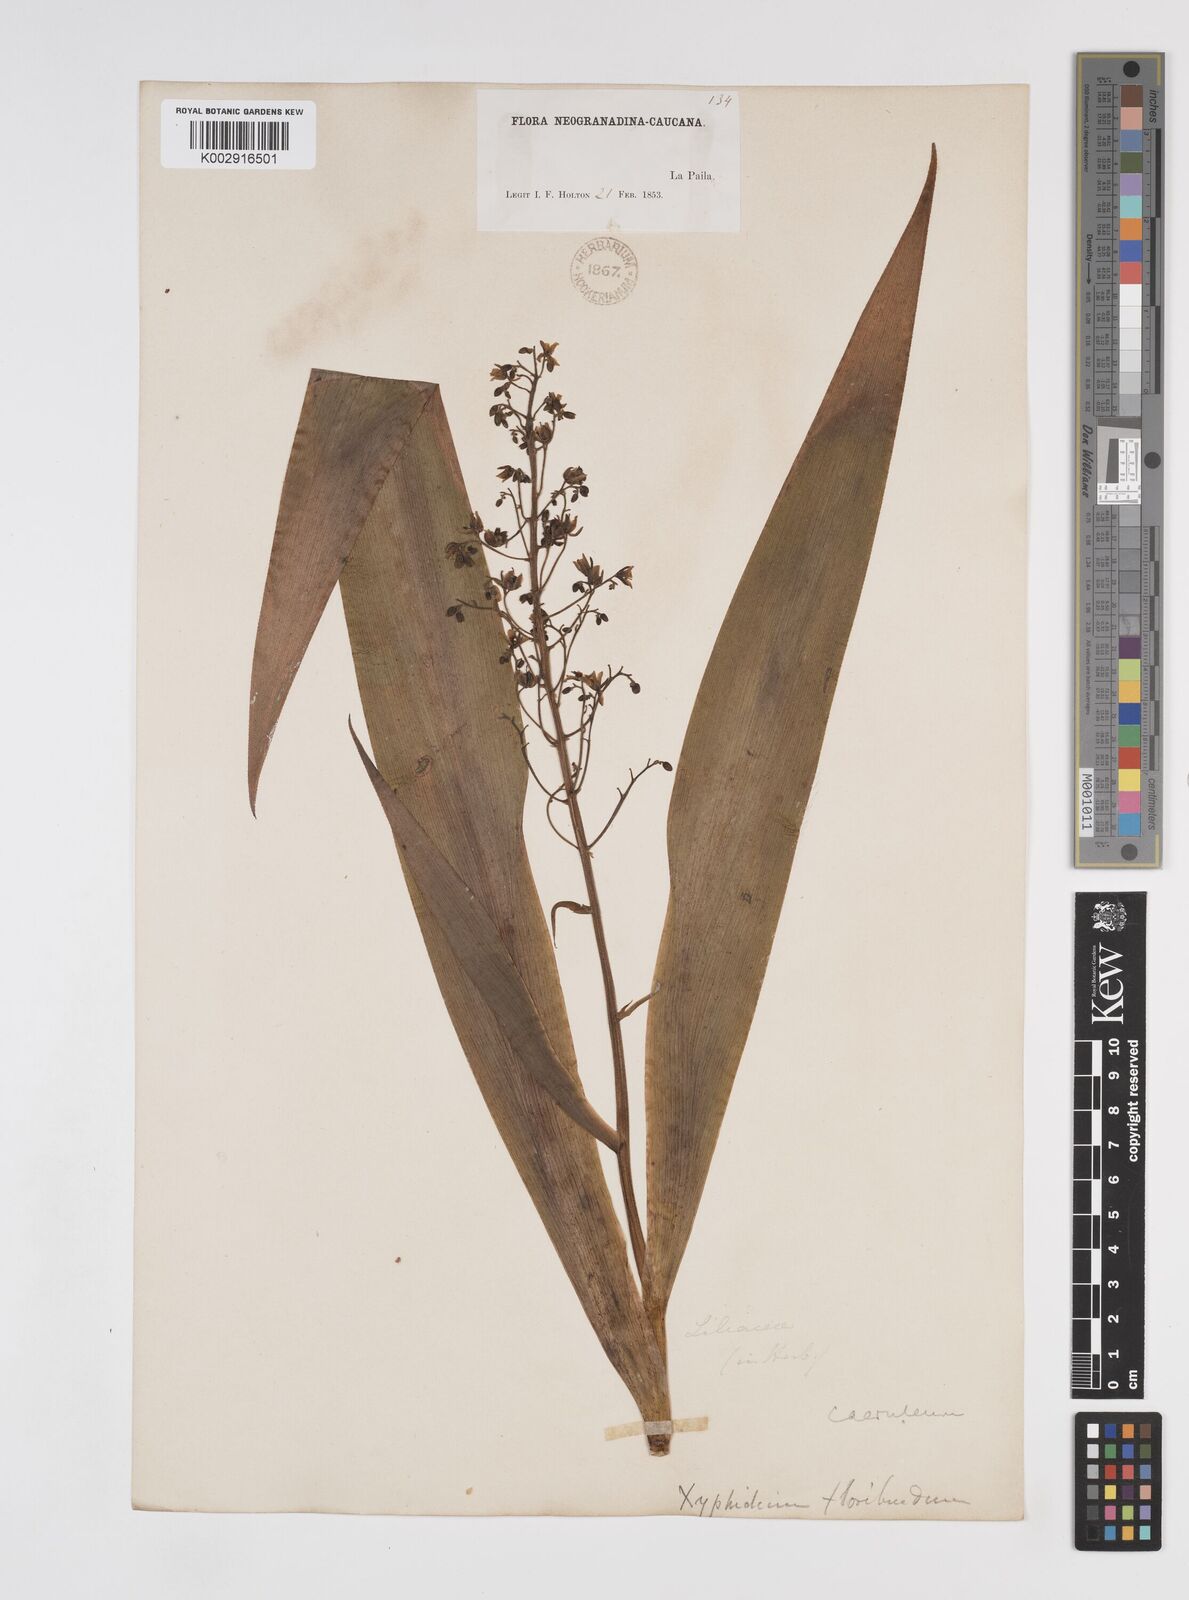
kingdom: Plantae
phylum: Tracheophyta
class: Liliopsida
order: Commelinales
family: Haemodoraceae
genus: Xiphidium
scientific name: Xiphidium caeruleum
